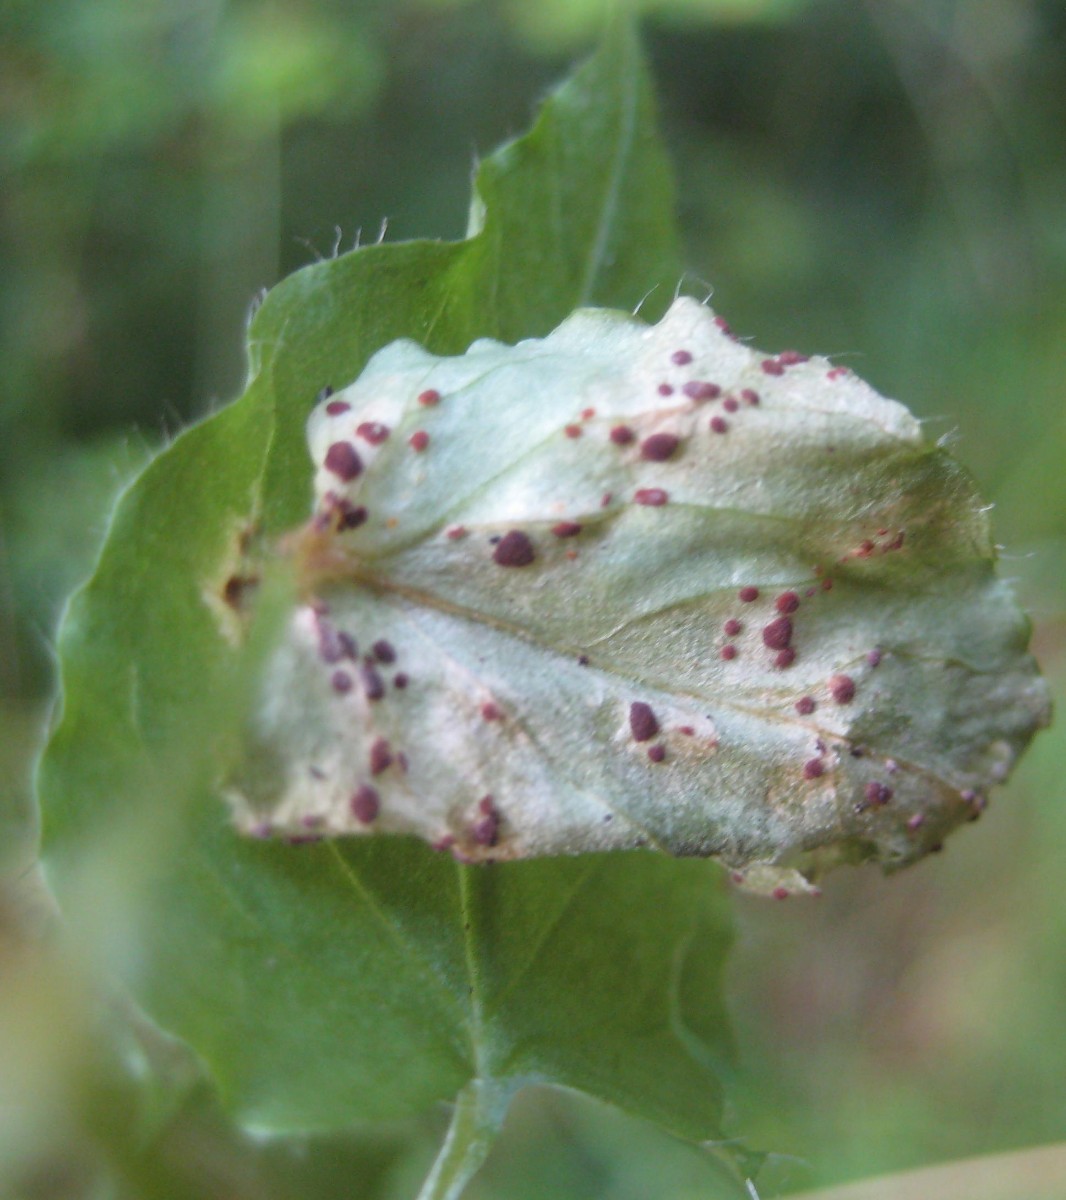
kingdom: Fungi
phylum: Basidiomycota
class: Pucciniomycetes
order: Pucciniales
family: Pucciniaceae
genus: Puccinia
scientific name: Puccinia arenariae
